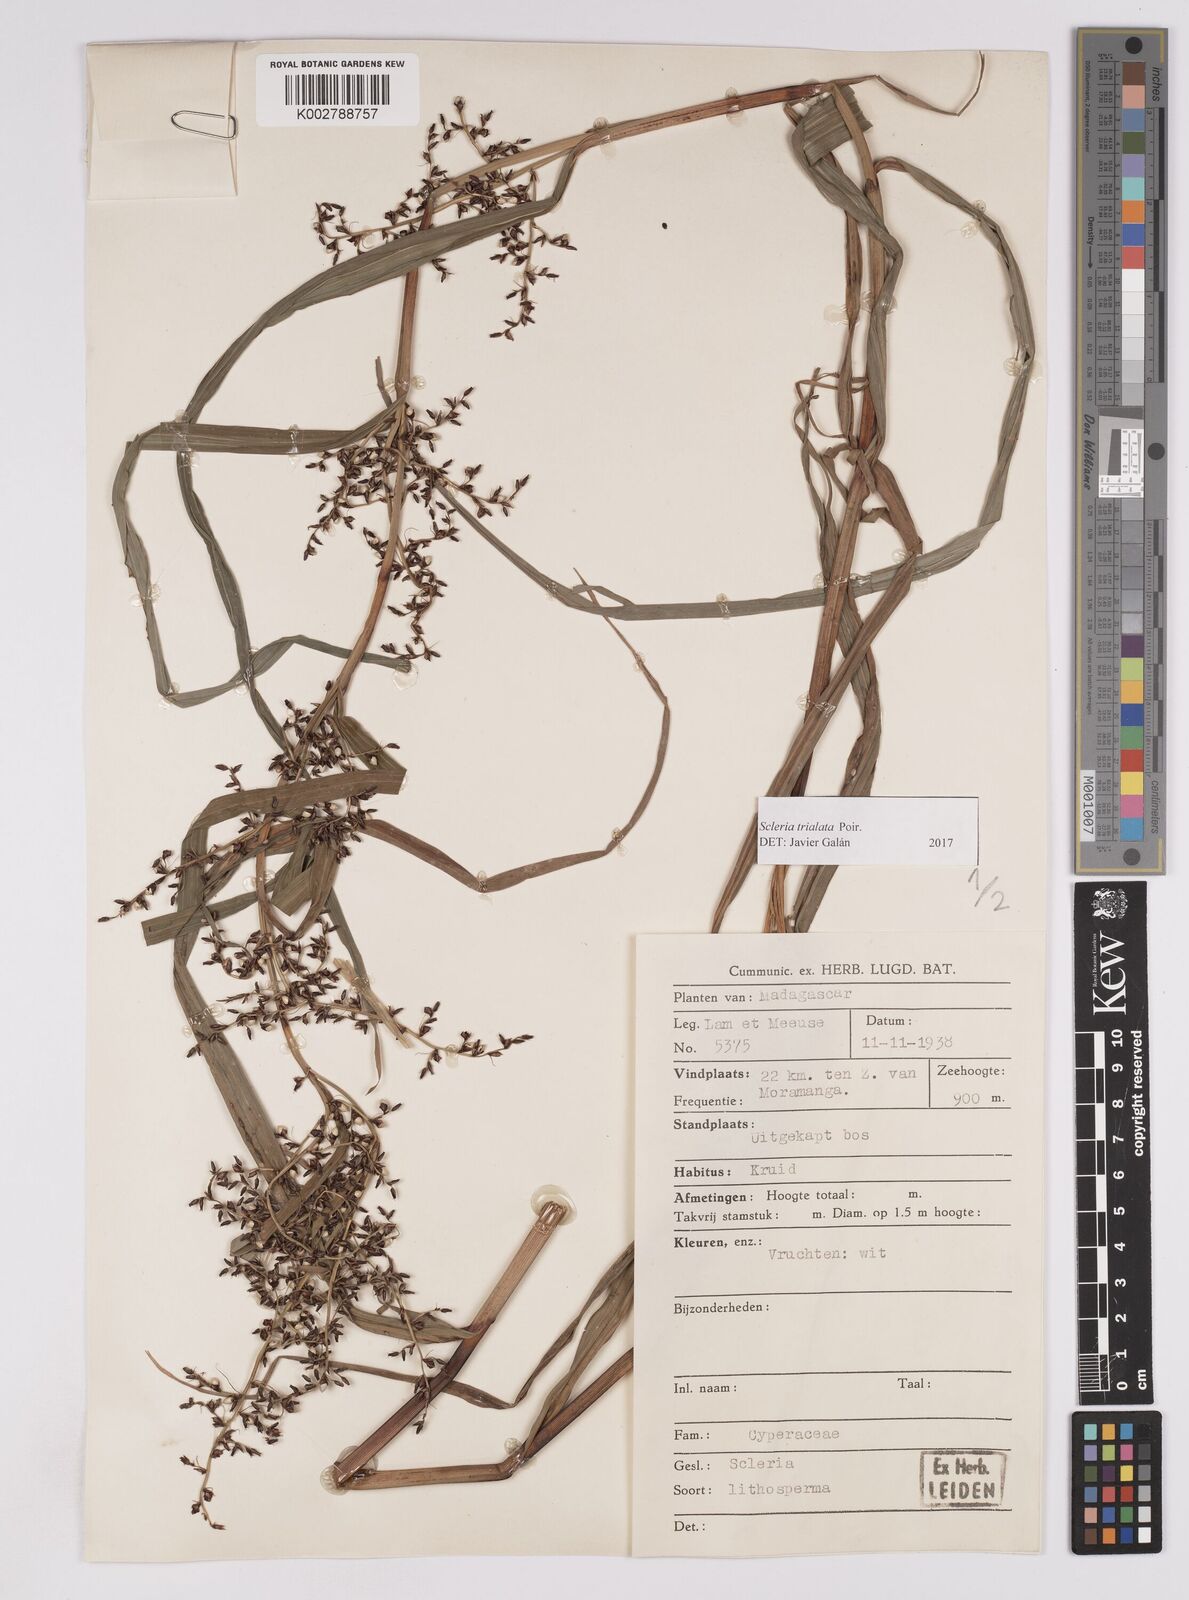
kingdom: Plantae
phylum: Tracheophyta
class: Liliopsida
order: Poales
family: Cyperaceae
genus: Scleria
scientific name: Scleria trialata
